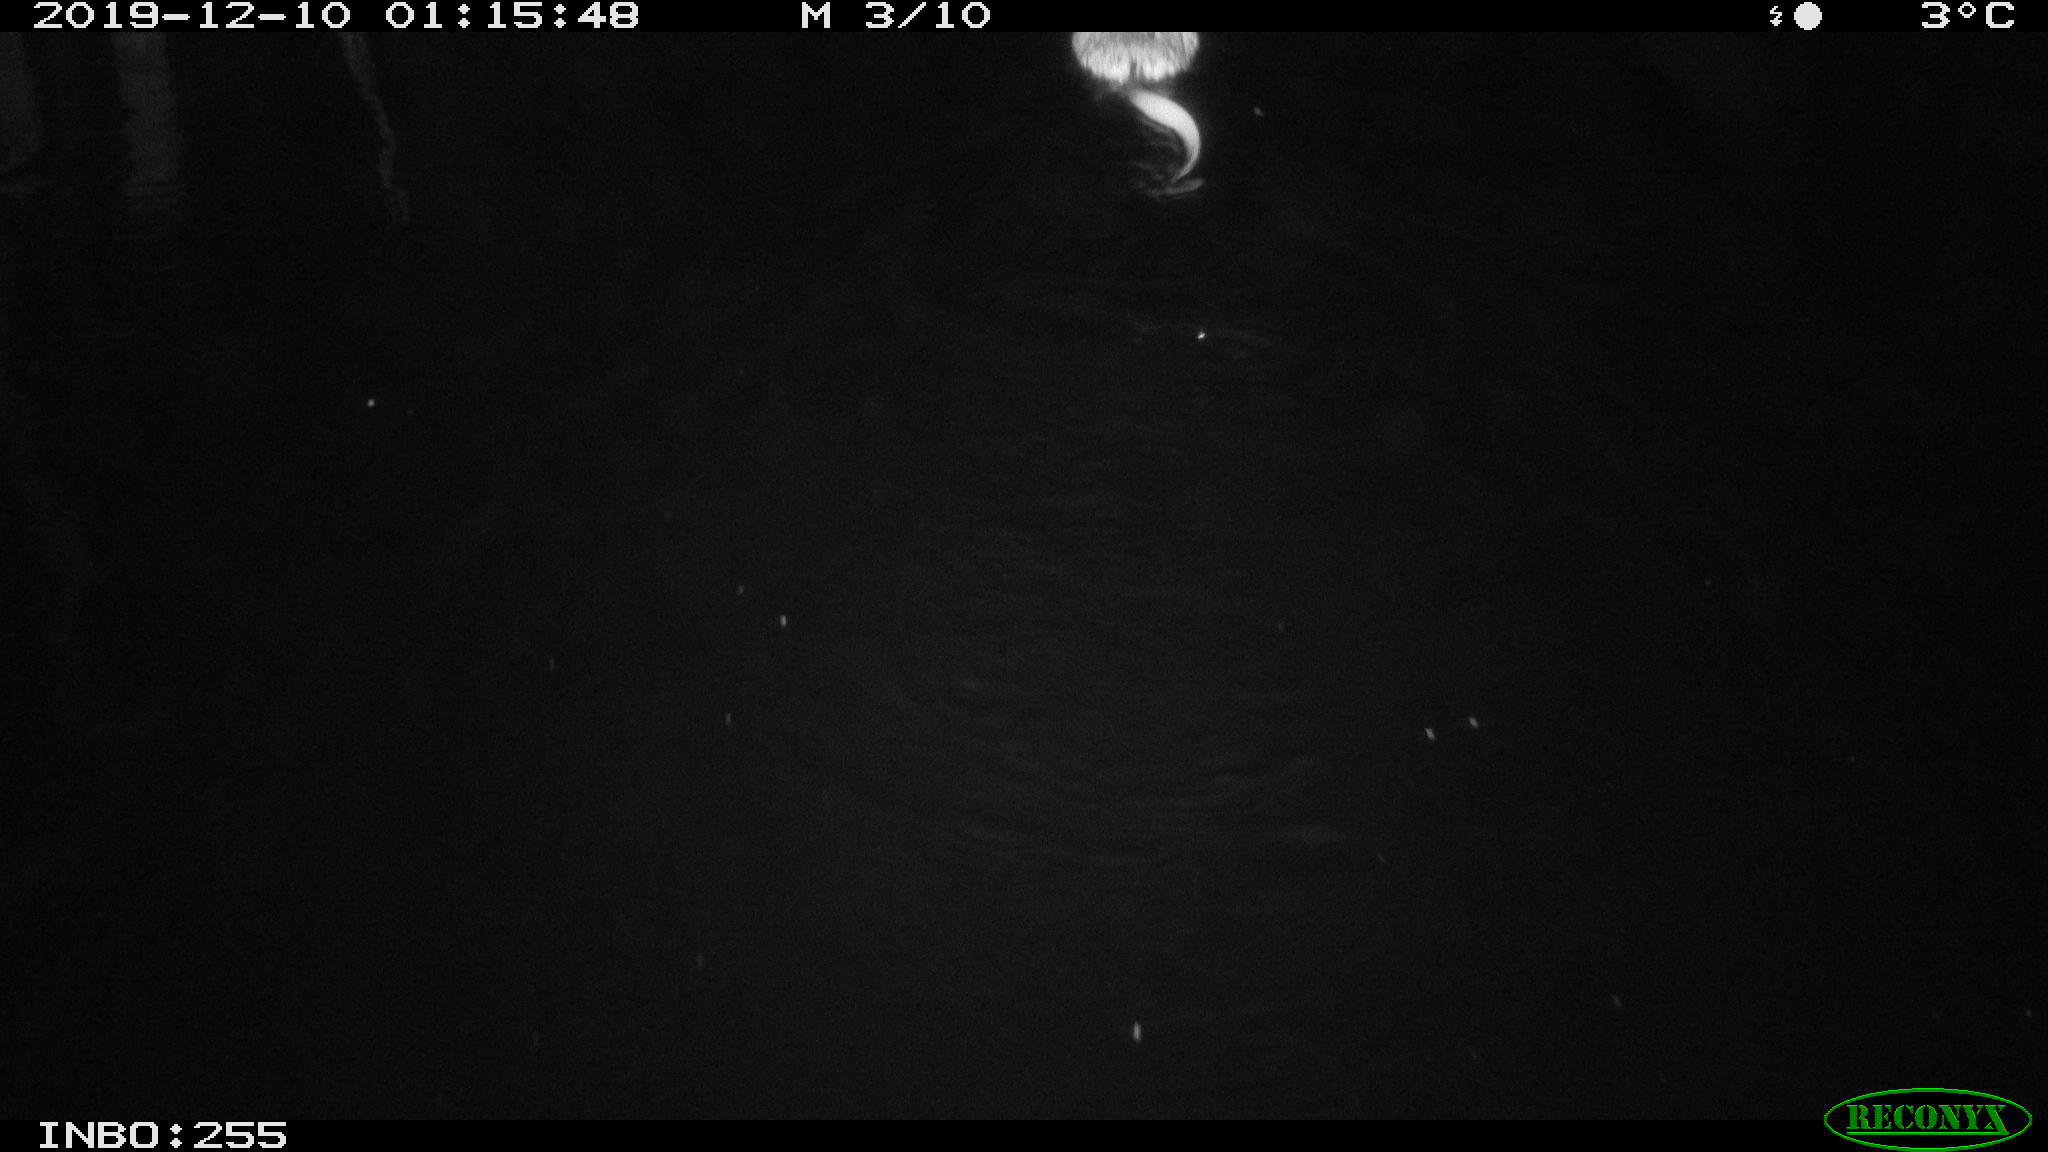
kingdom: Animalia
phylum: Chordata
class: Mammalia
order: Rodentia
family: Cricetidae
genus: Ondatra
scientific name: Ondatra zibethicus
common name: Muskrat
